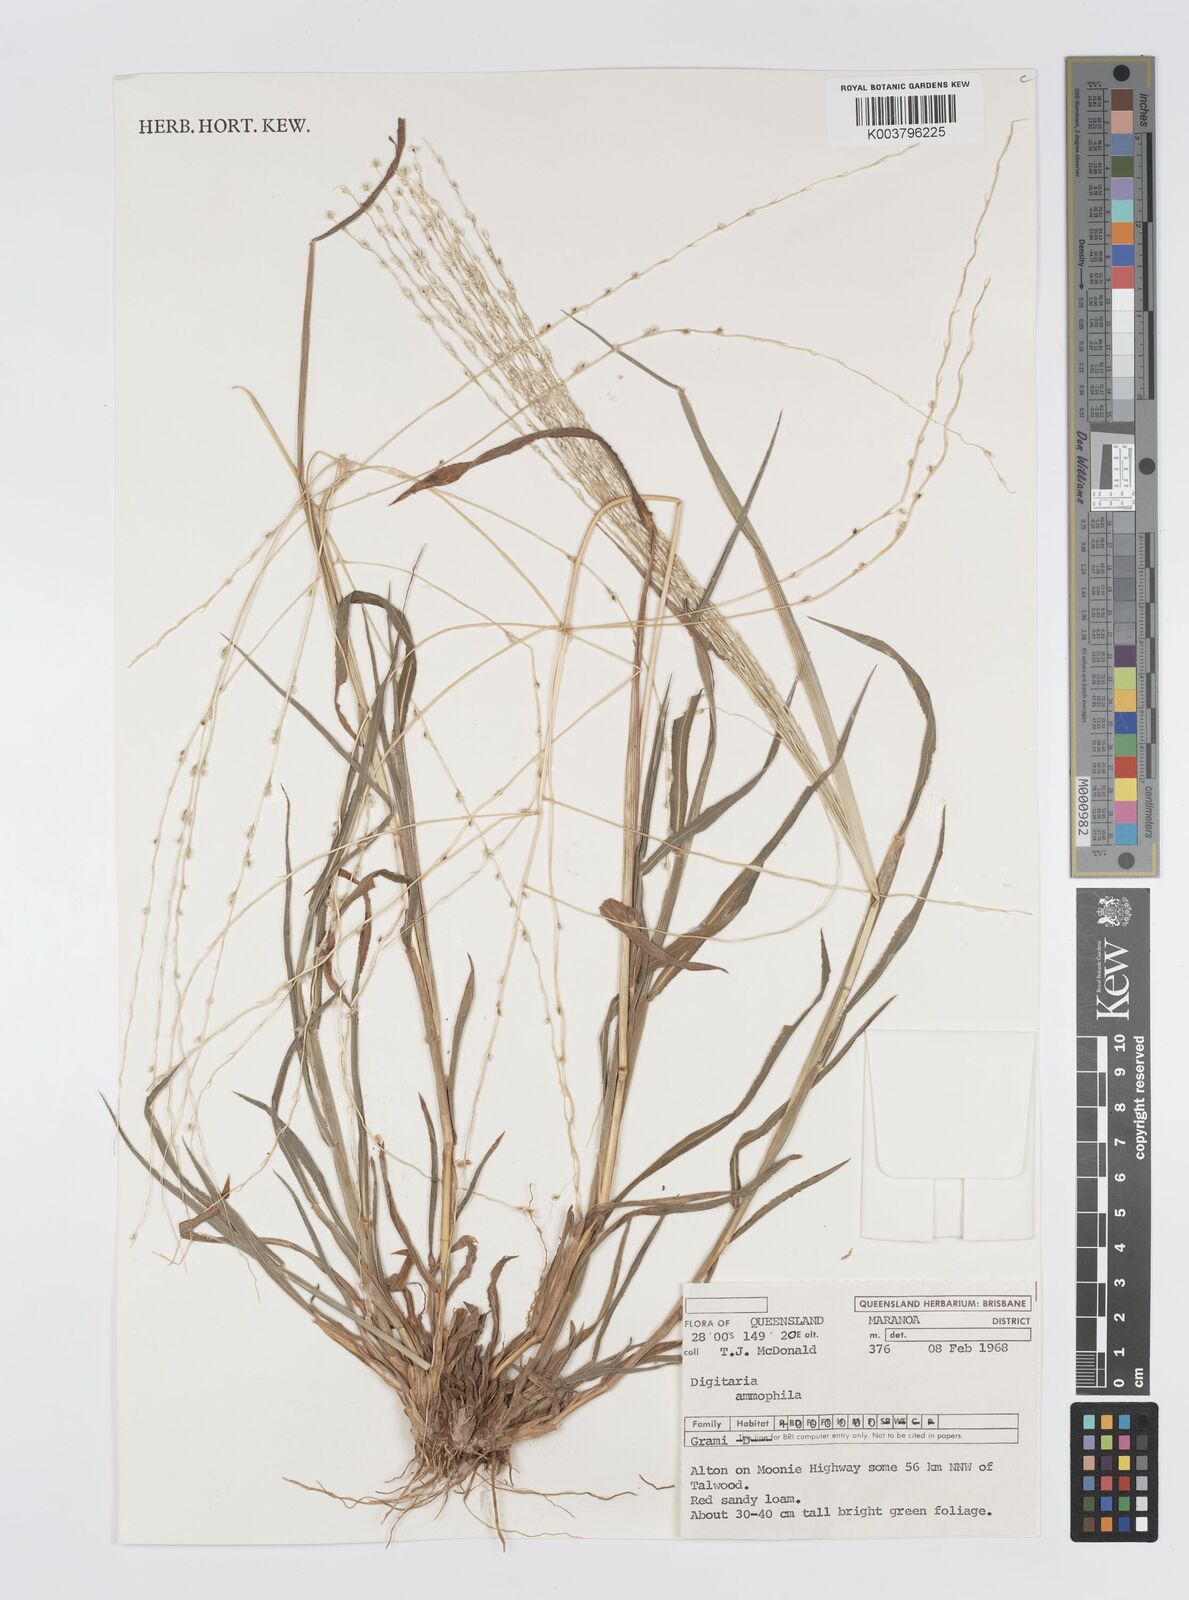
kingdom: Plantae
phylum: Tracheophyta
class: Liliopsida
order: Poales
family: Poaceae
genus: Digitaria
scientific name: Digitaria ammophila
